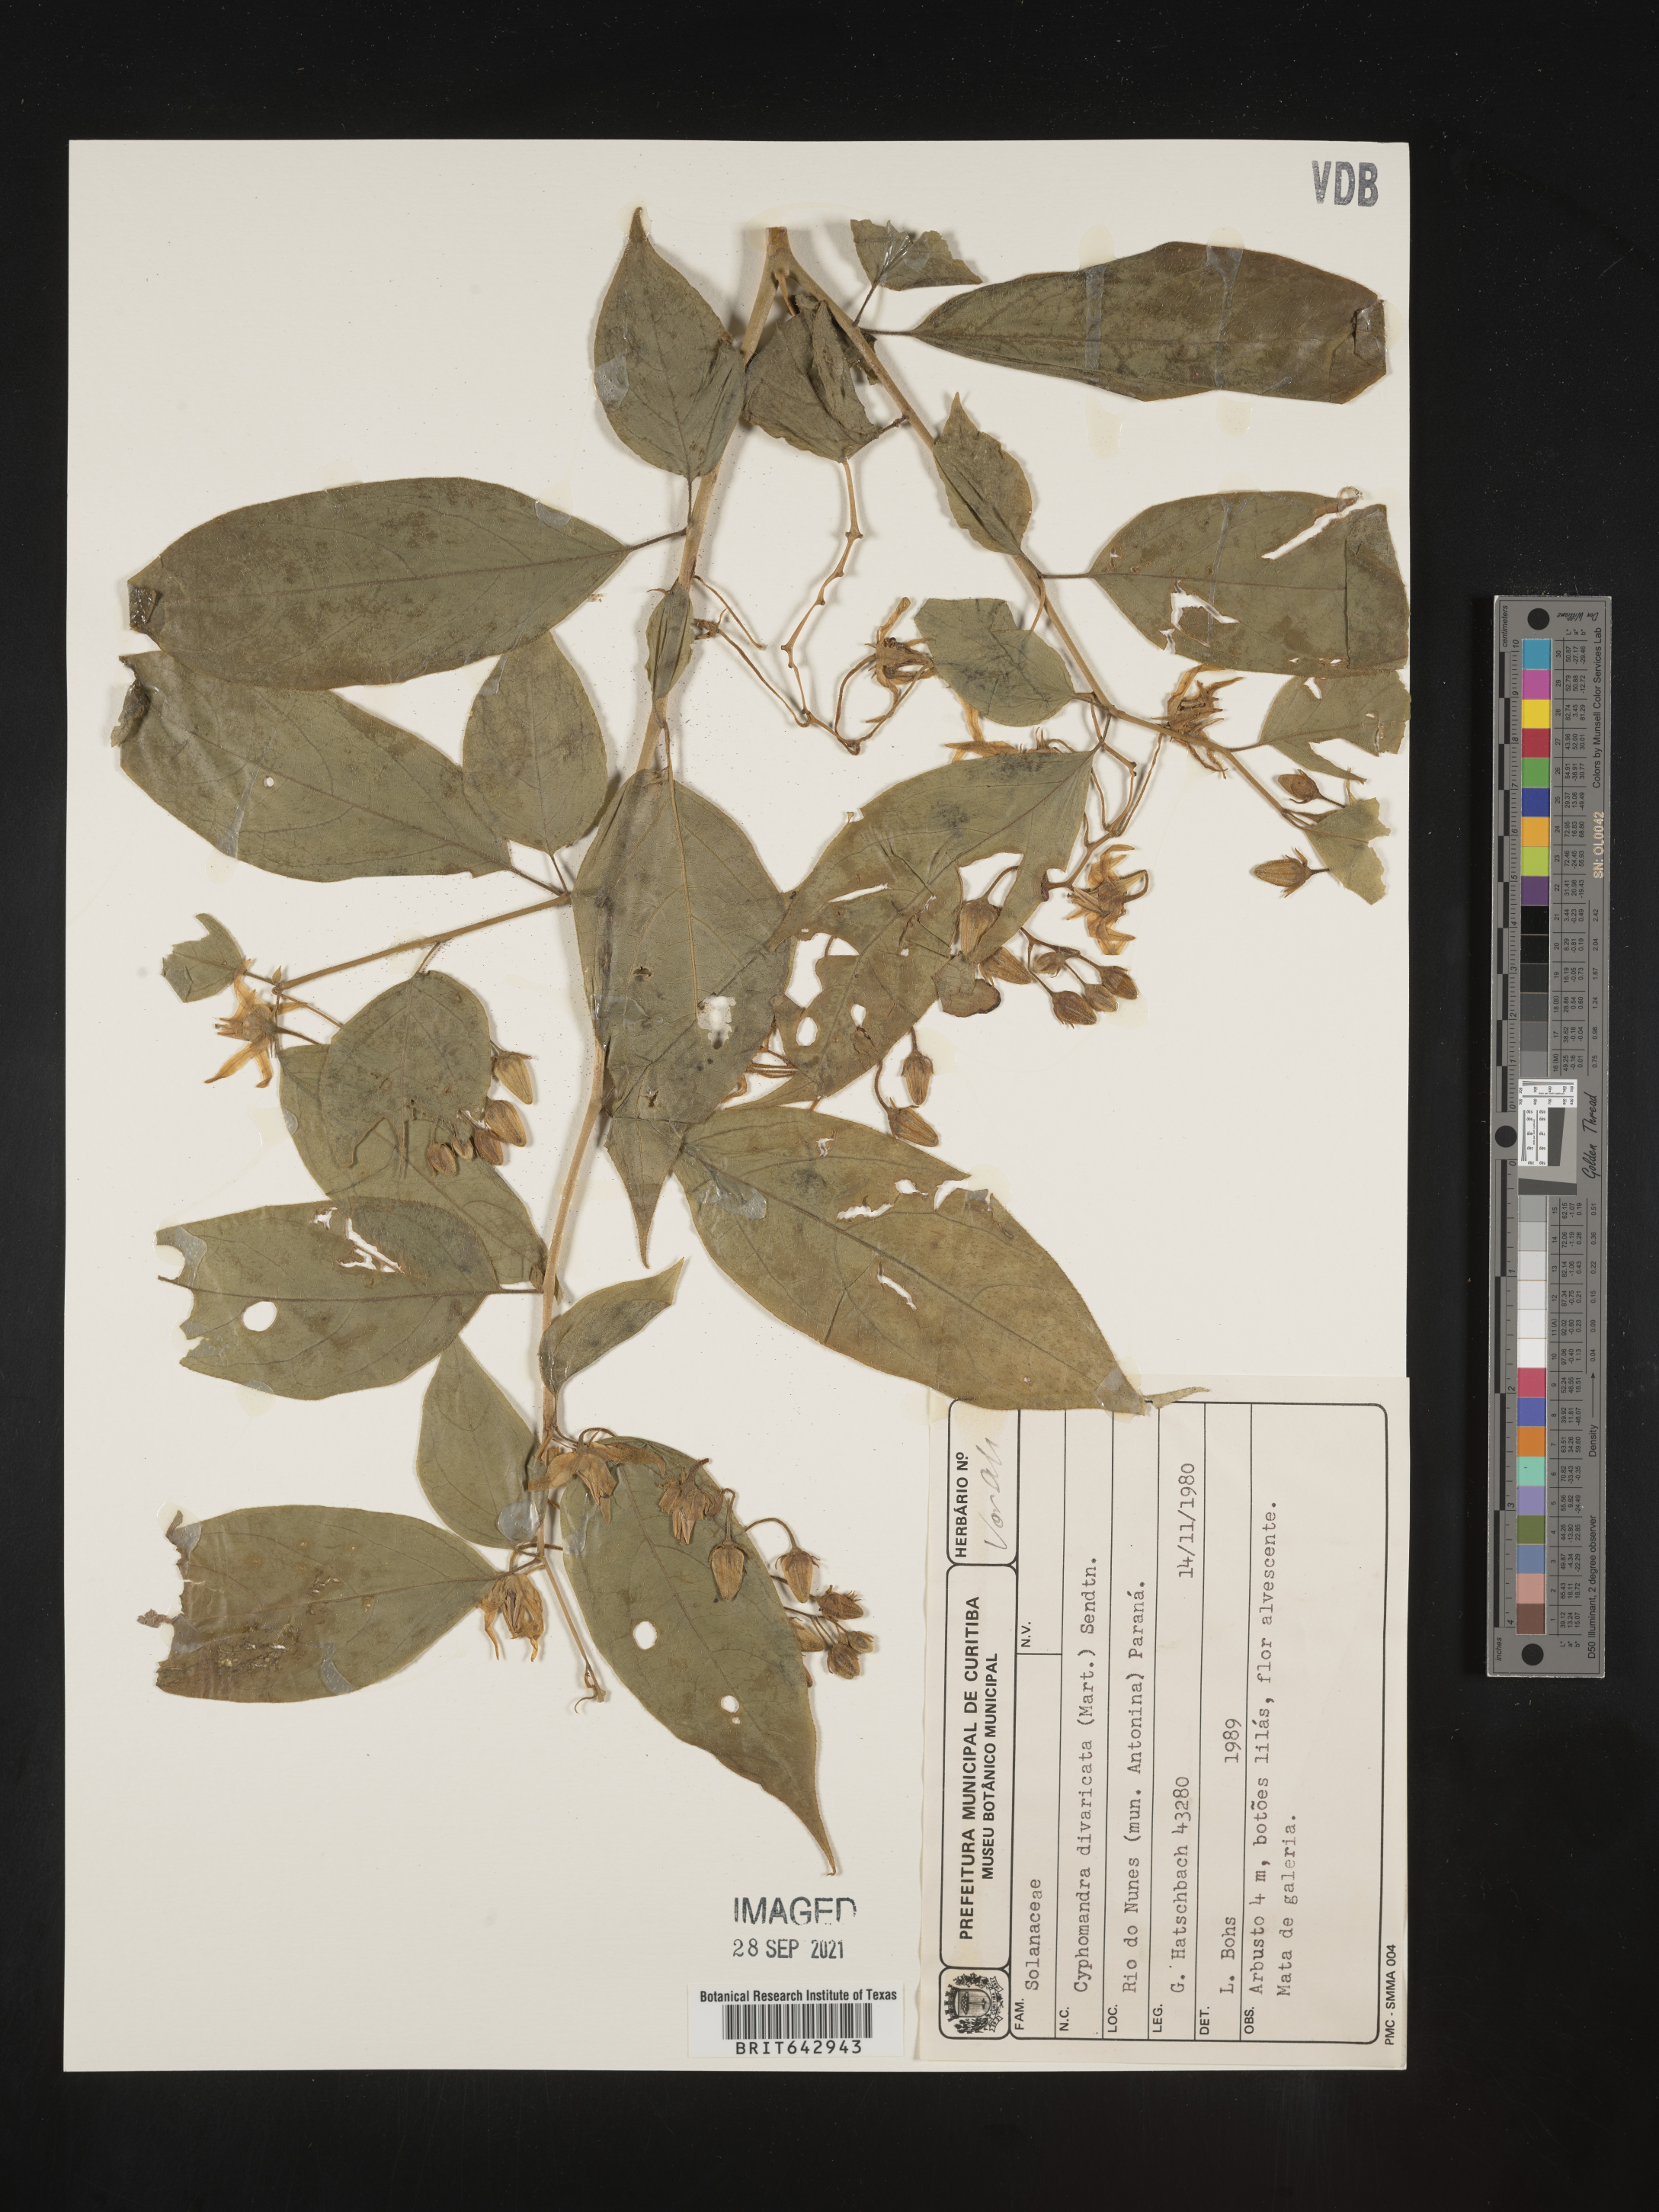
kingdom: Plantae
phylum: Tracheophyta
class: Magnoliopsida
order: Solanales
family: Solanaceae
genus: Solanum
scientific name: Solanum
